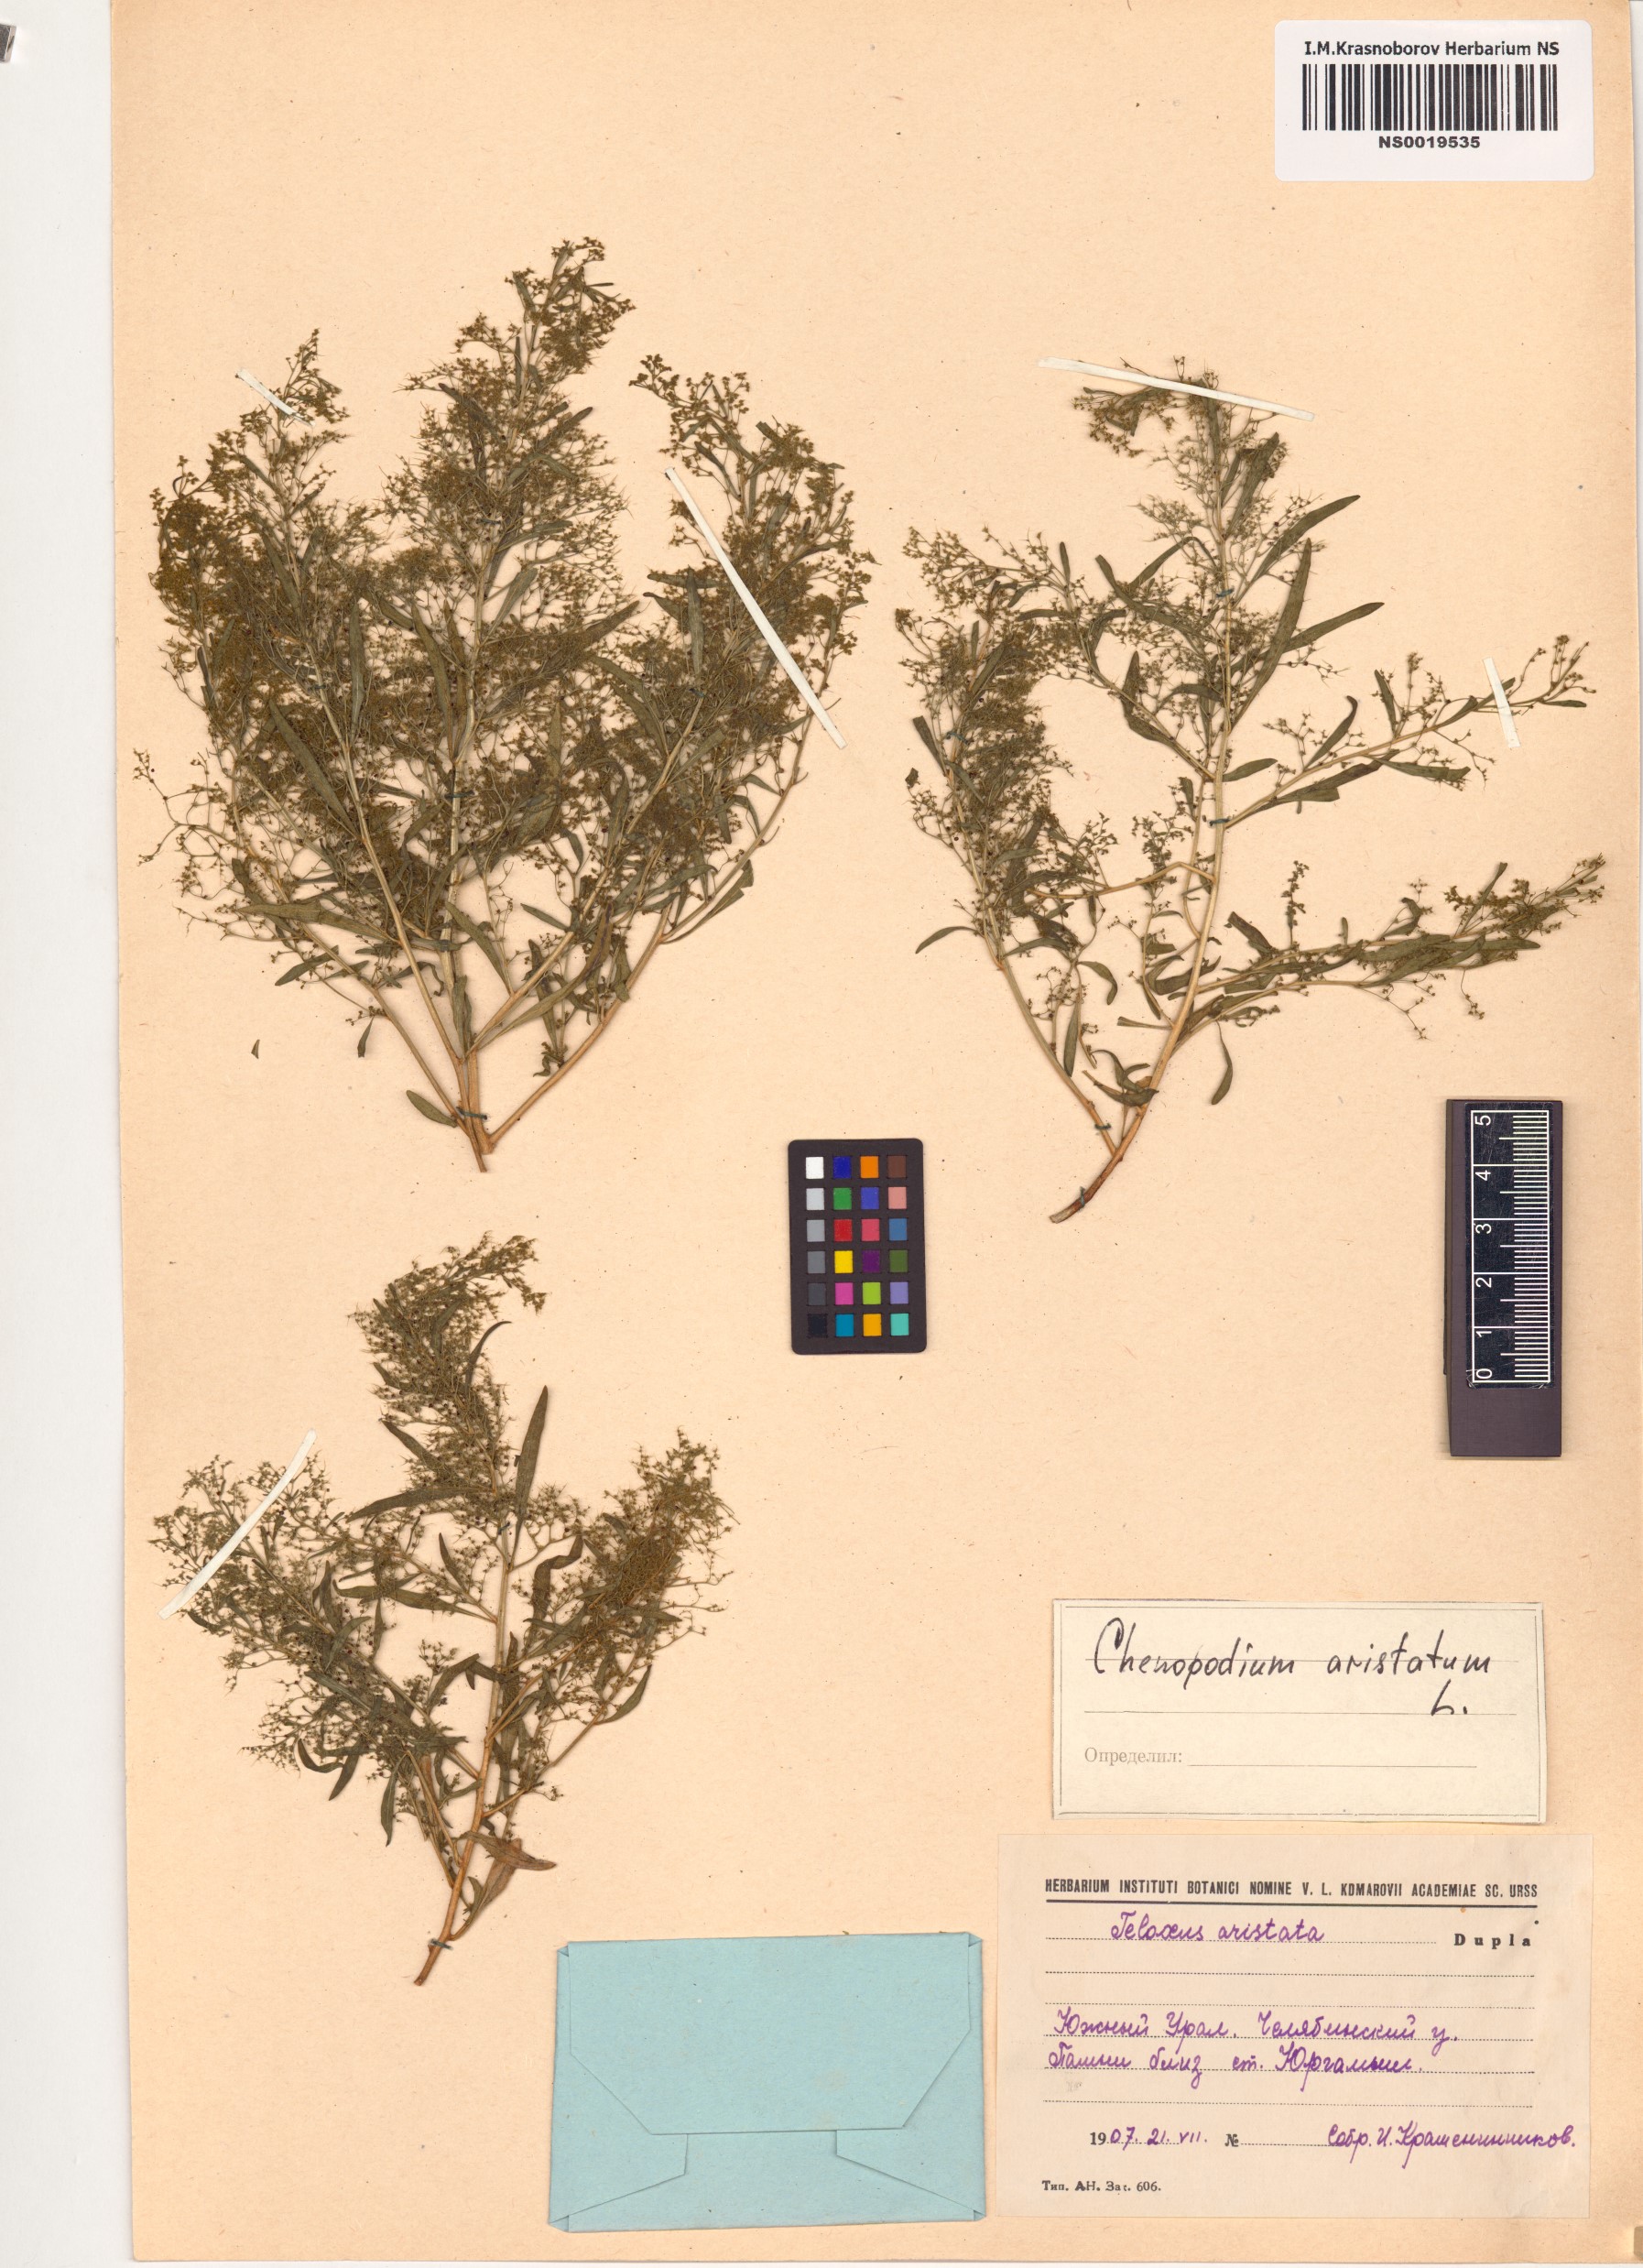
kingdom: Plantae
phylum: Tracheophyta
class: Magnoliopsida
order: Caryophyllales
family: Amaranthaceae
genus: Teloxys
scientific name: Teloxys aristata
